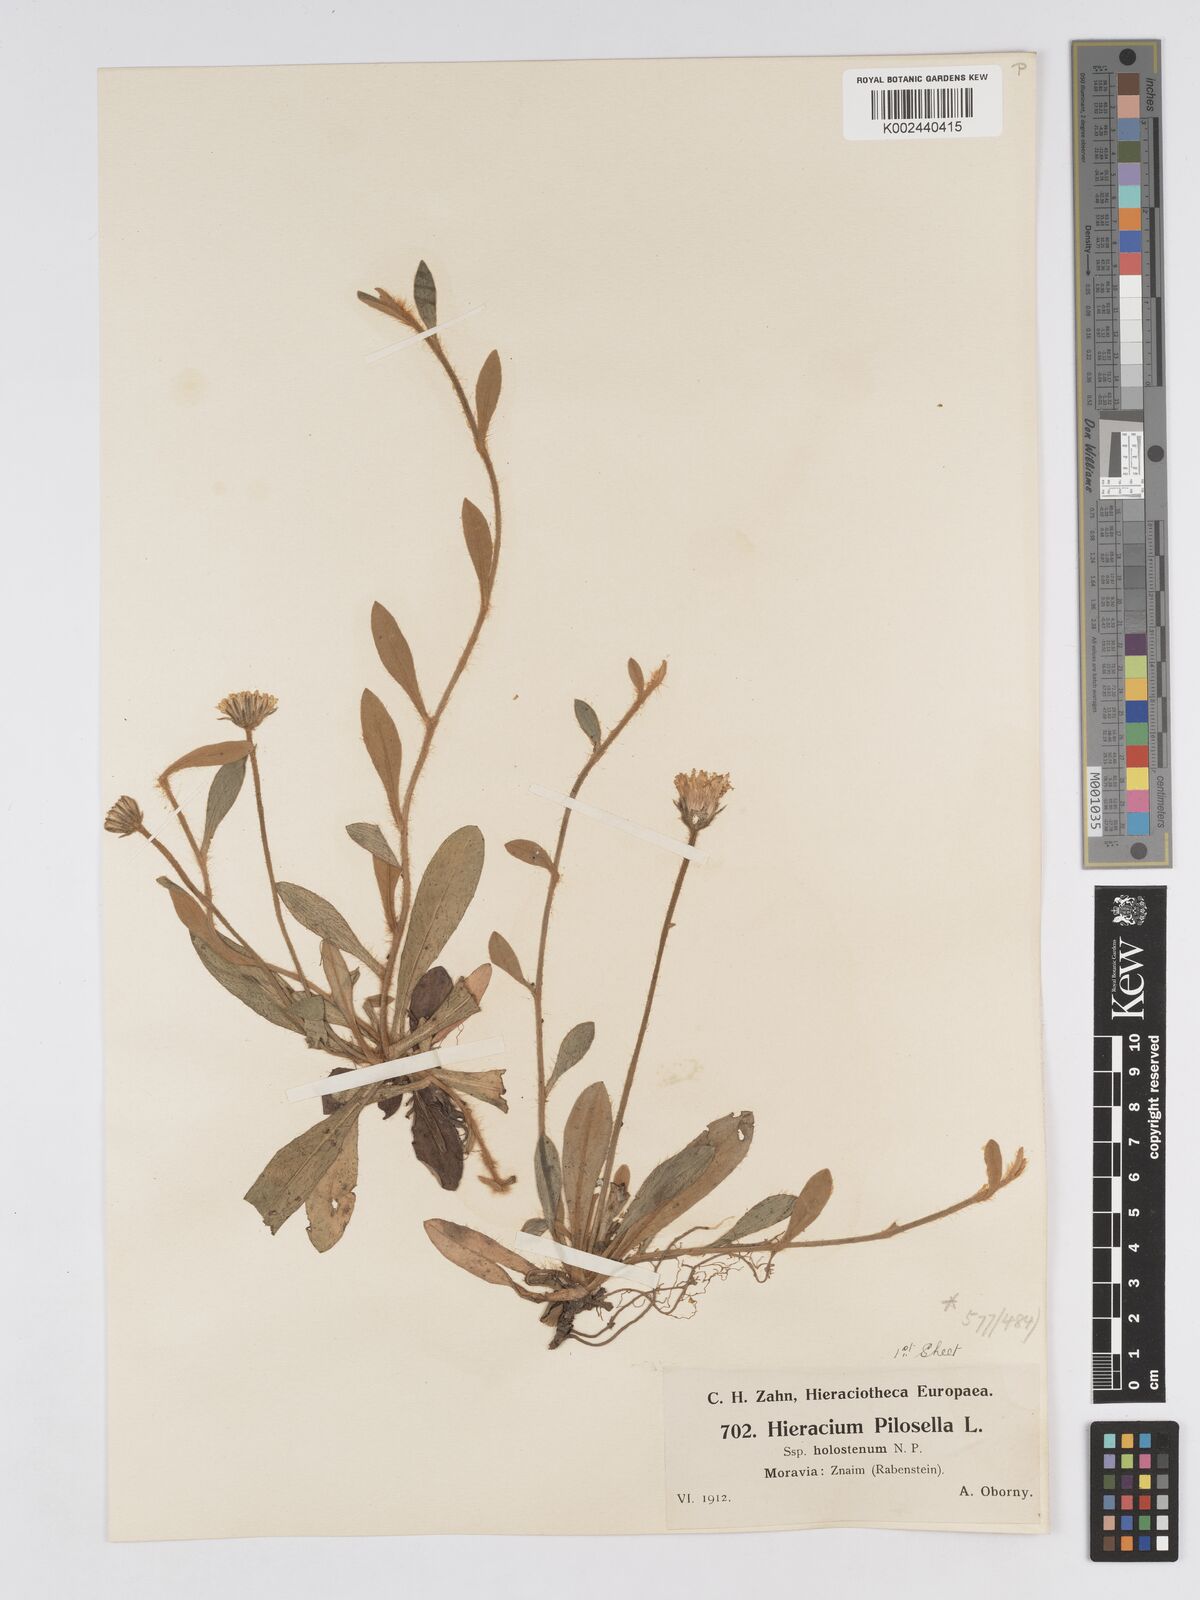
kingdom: Plantae
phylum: Tracheophyta
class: Magnoliopsida
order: Asterales
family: Asteraceae
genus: Pilosella
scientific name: Pilosella officinarum
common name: Mouse-ear hawkweed
